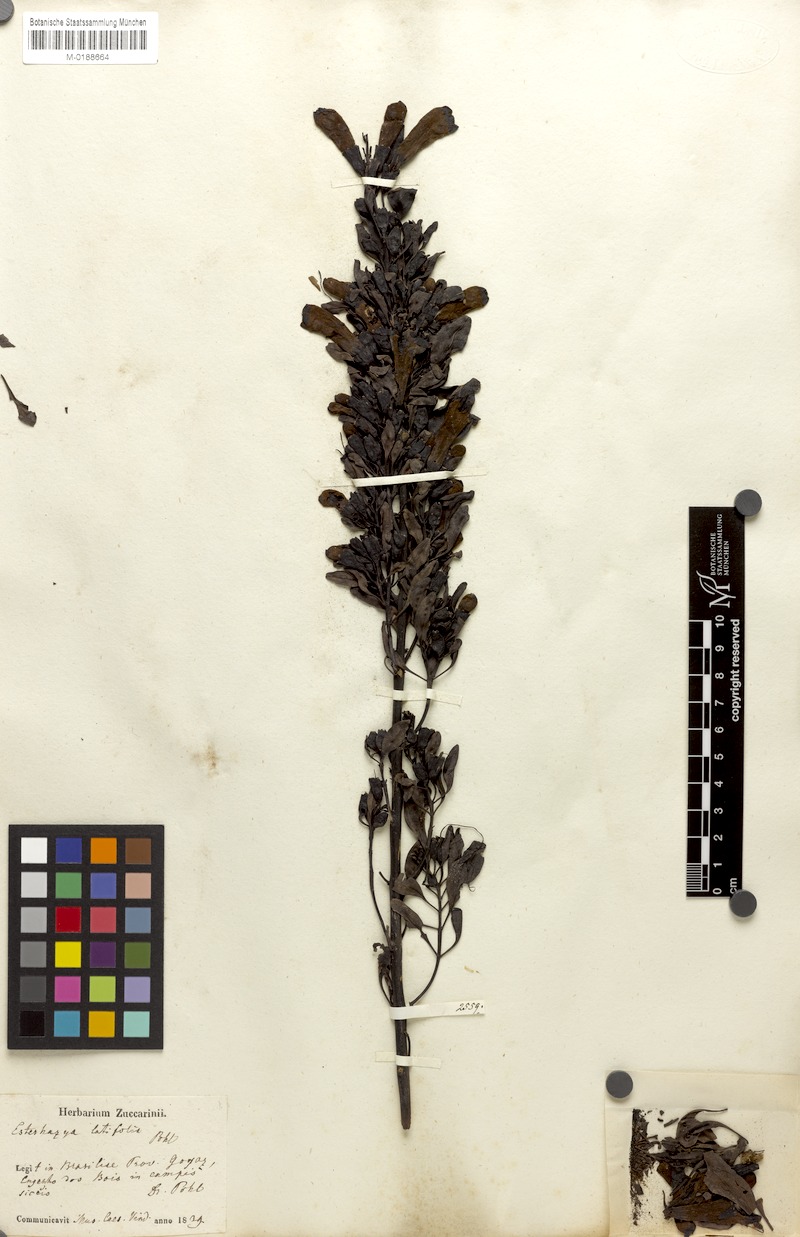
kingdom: Plantae
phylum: Tracheophyta
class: Magnoliopsida
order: Lamiales
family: Orobanchaceae
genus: Esterhazya
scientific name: Esterhazya splendida
